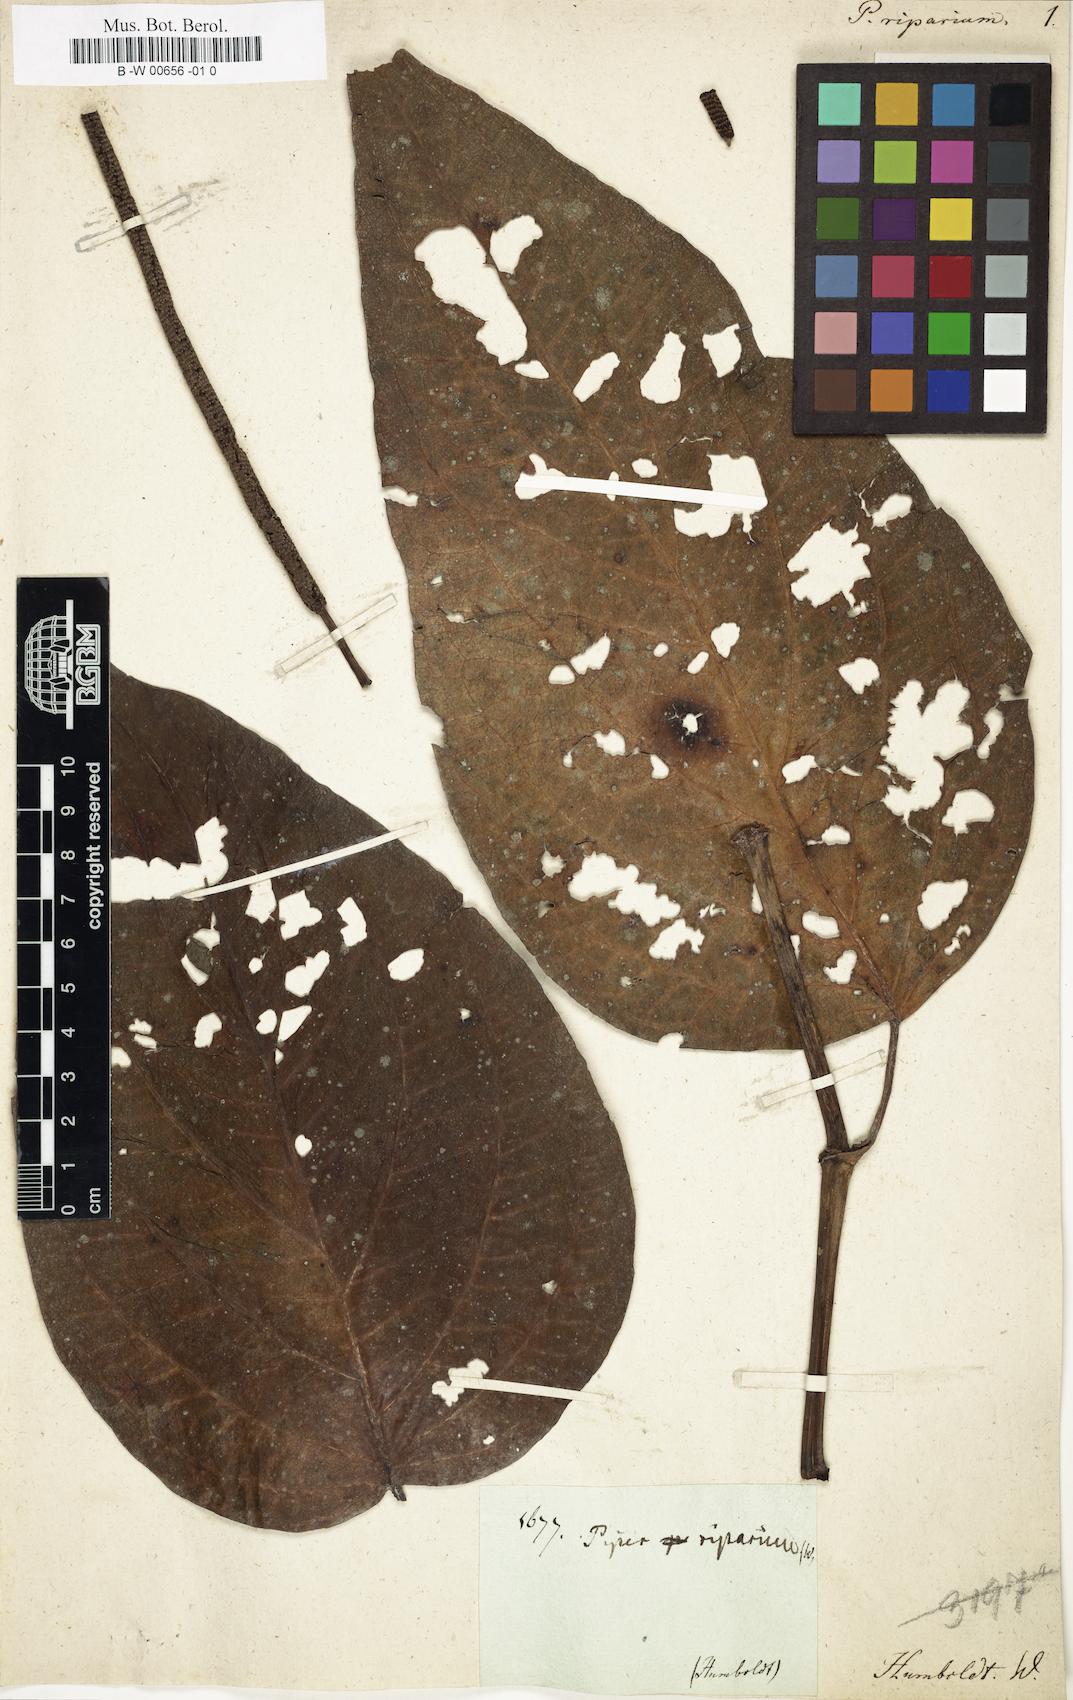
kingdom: Plantae
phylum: Tracheophyta
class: Magnoliopsida
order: Piperales
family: Piperaceae
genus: Piper
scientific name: Piper grande
